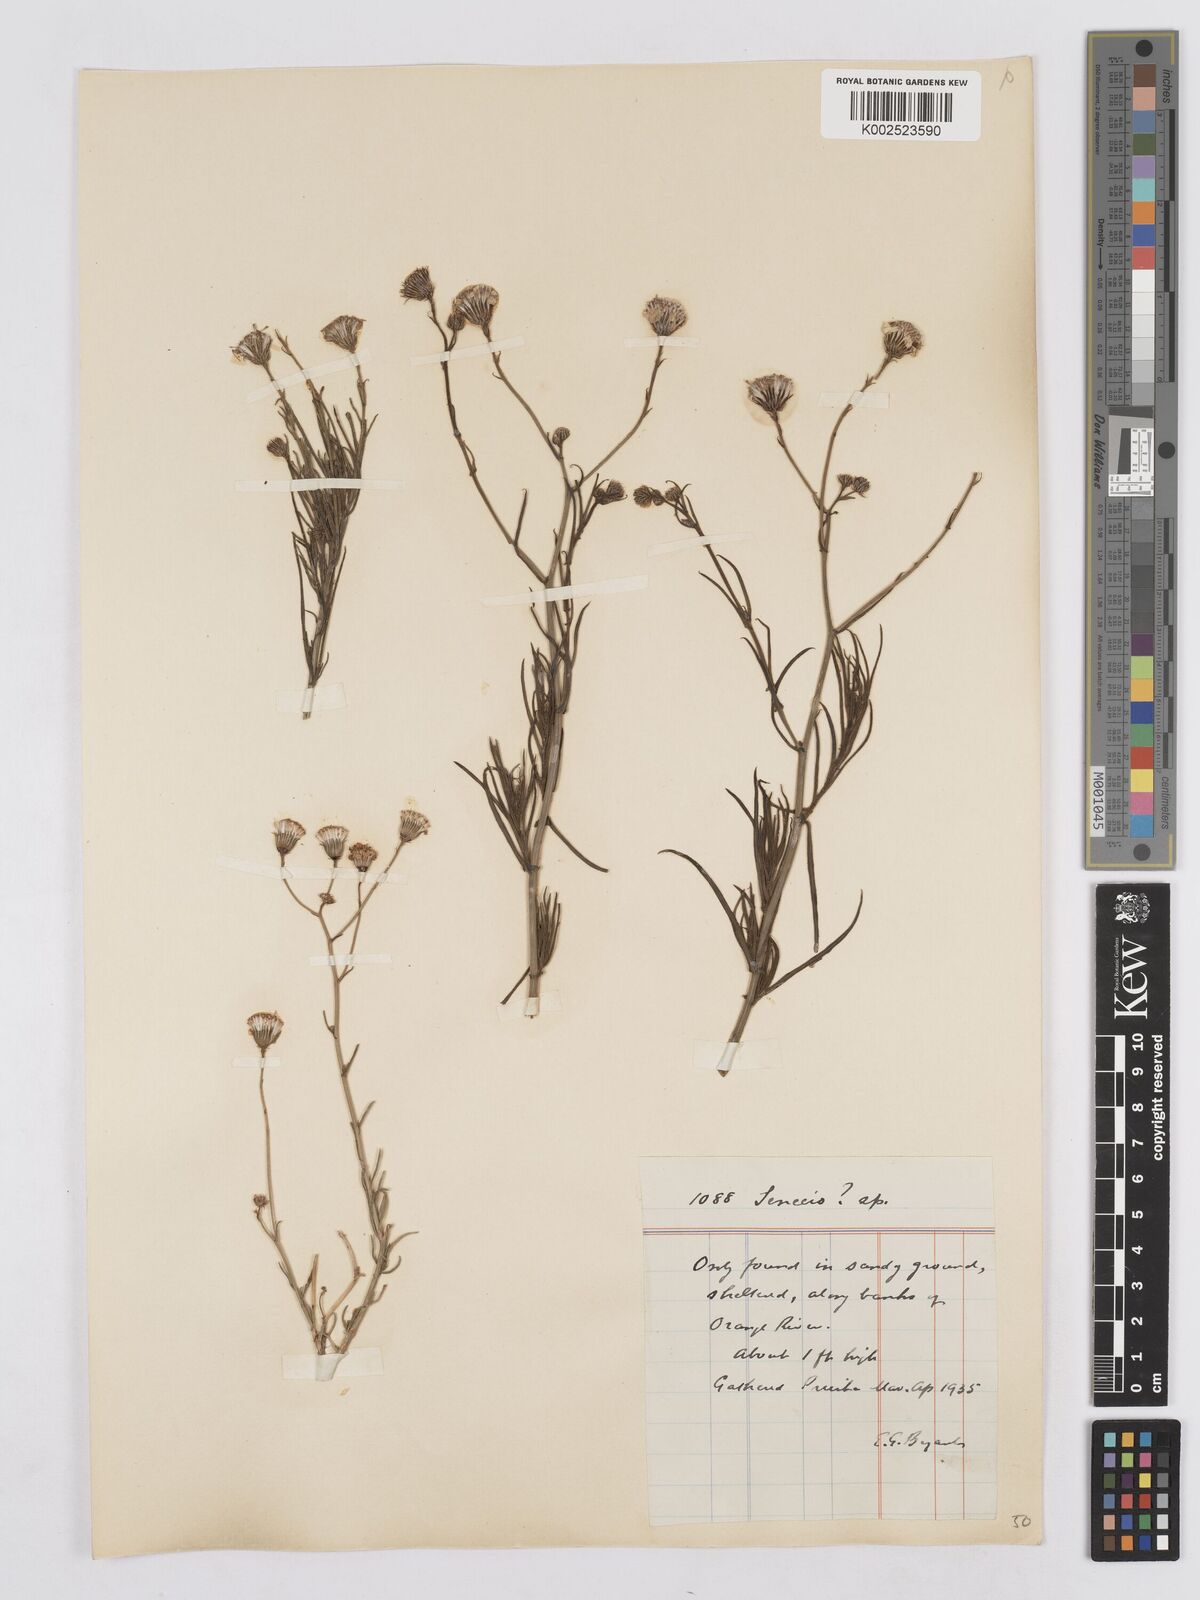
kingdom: Plantae
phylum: Tracheophyta
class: Magnoliopsida
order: Asterales
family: Asteraceae
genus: Senecio
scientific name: Senecio inaequidens
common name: Narrow-leaved ragwort
